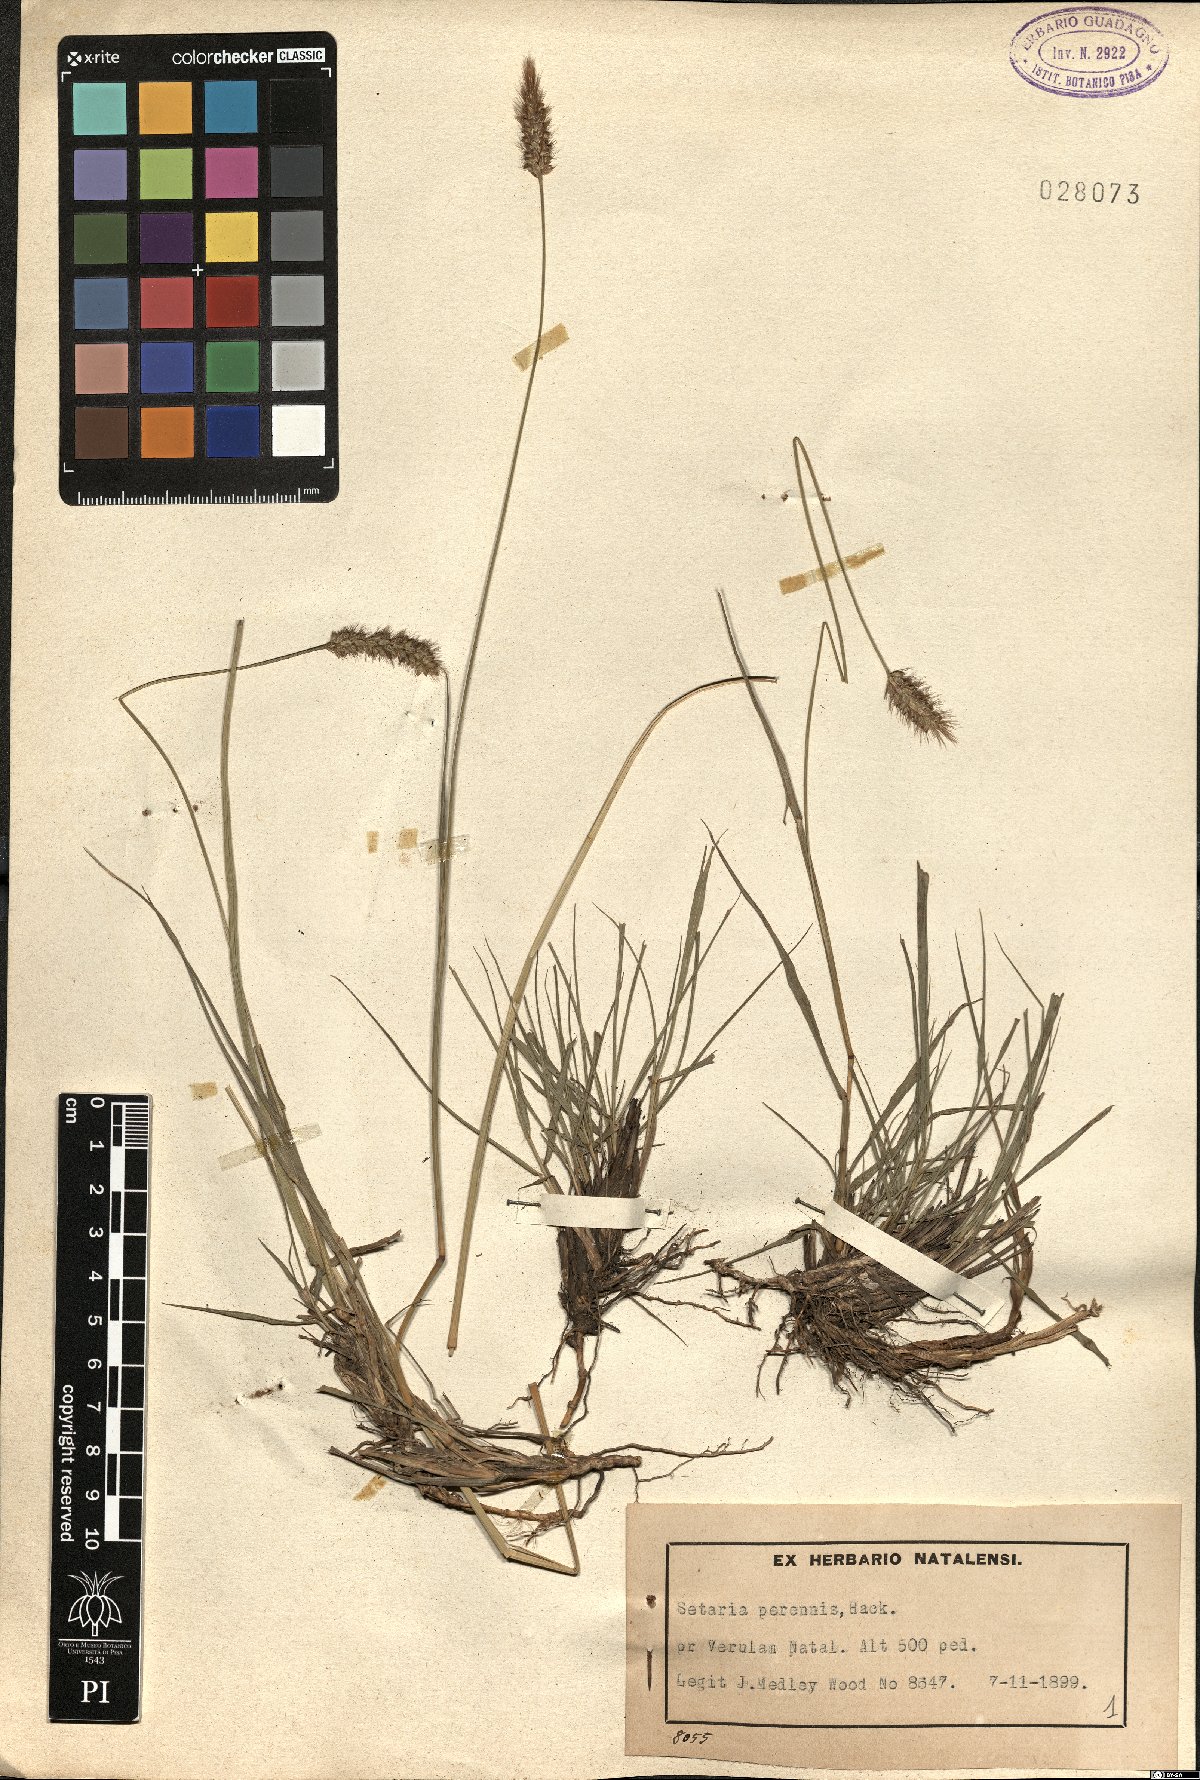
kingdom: Plantae
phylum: Tracheophyta
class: Liliopsida
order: Poales
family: Poaceae
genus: Setaria
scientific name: Setaria sphacelata
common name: African bristlegrass
